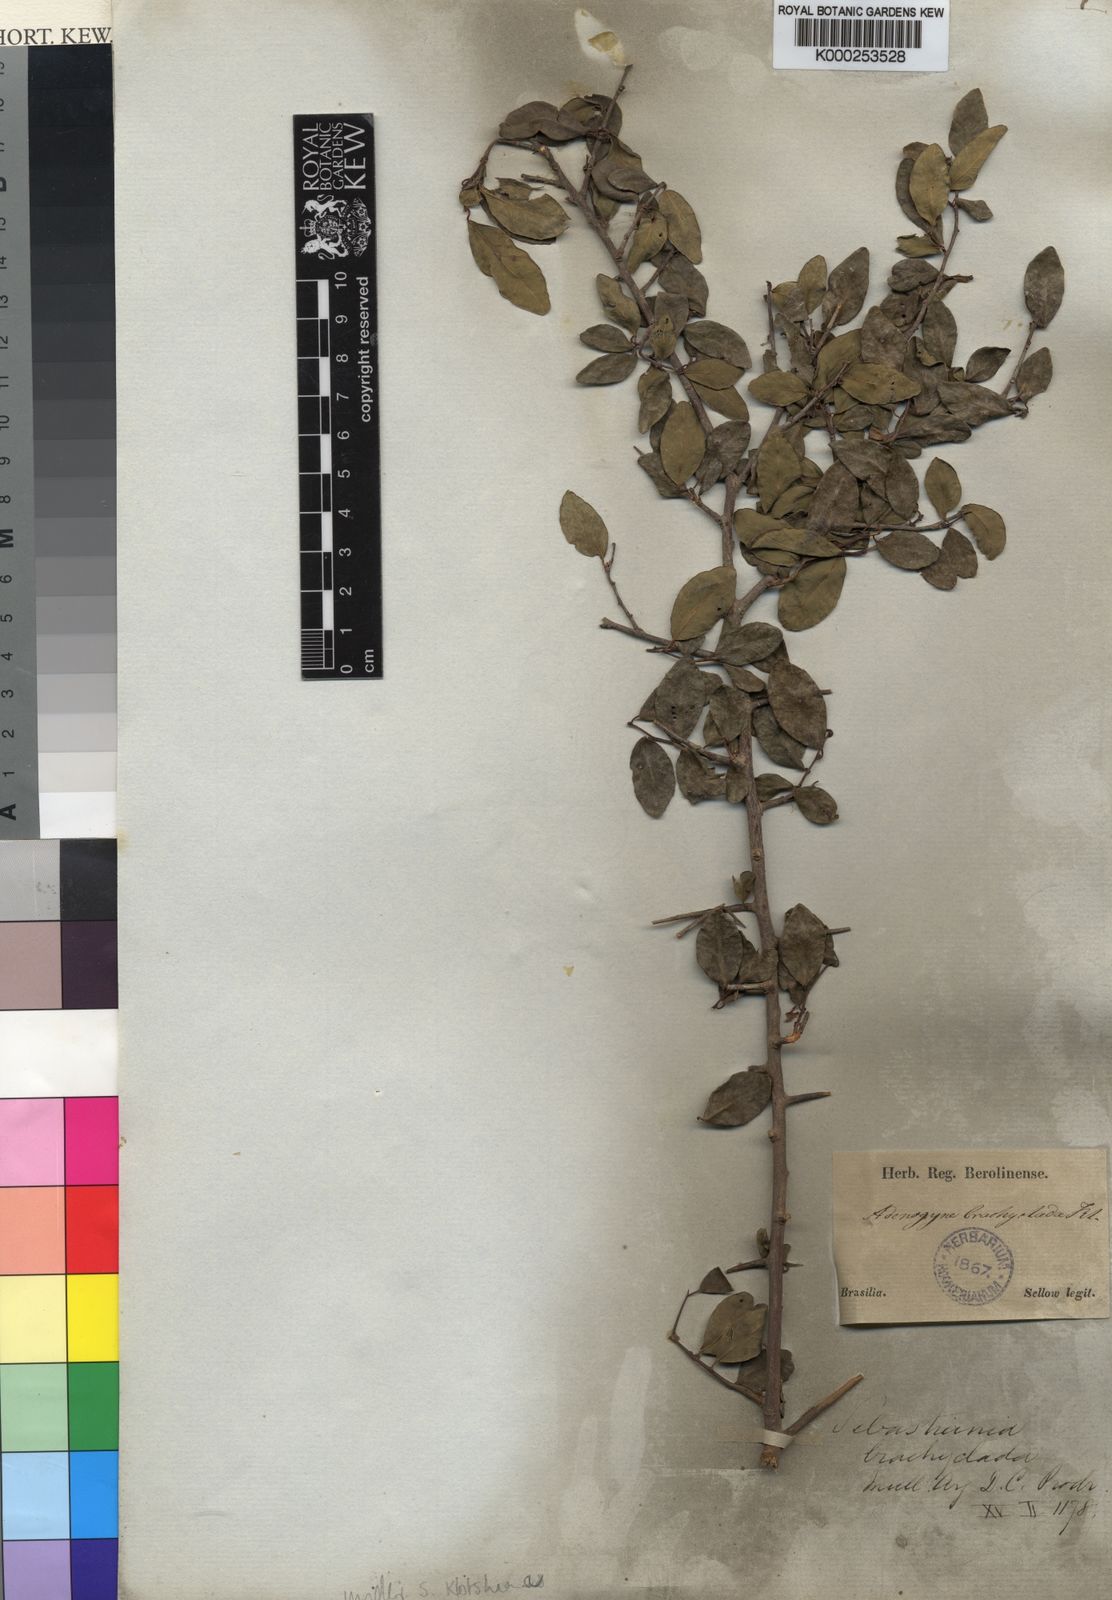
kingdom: Plantae
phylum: Tracheophyta
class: Magnoliopsida
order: Malpighiales
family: Euphorbiaceae
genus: Gymnanthes
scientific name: Gymnanthes
